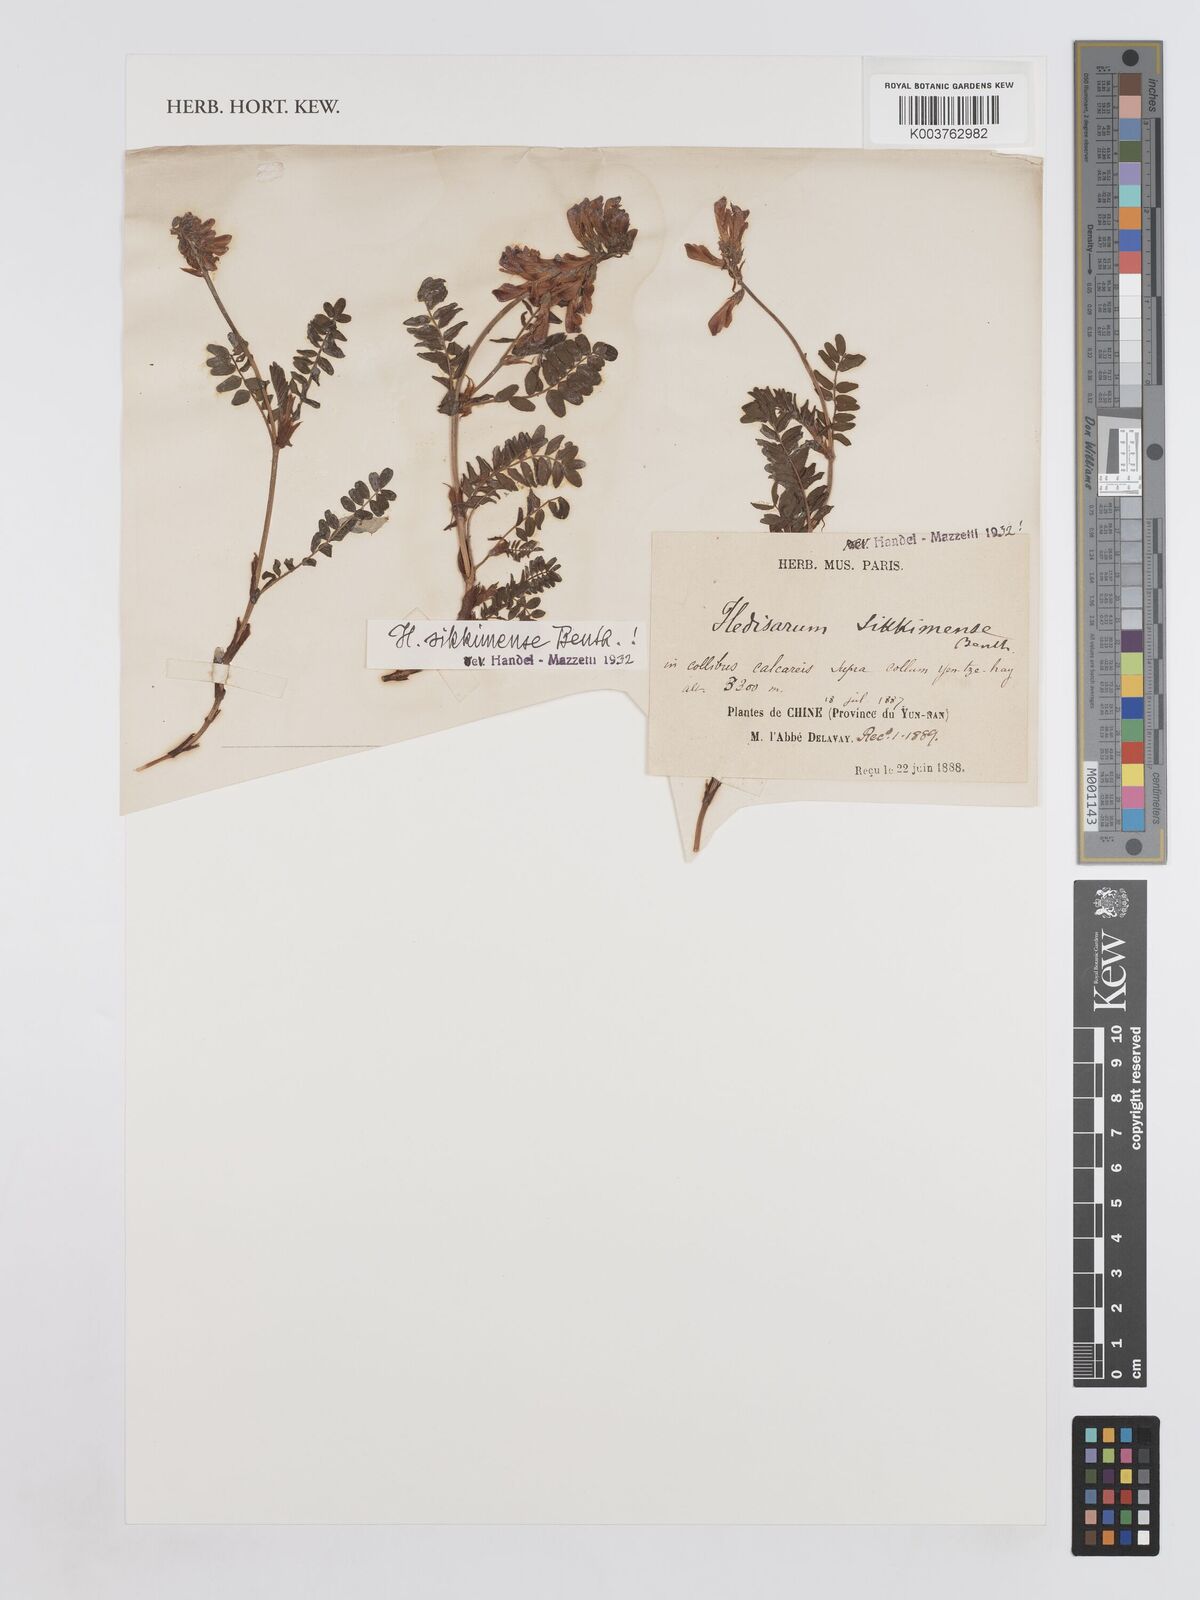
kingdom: Plantae
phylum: Tracheophyta
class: Magnoliopsida
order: Fabales
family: Fabaceae
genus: Hedysarum
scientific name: Hedysarum sikkimense
